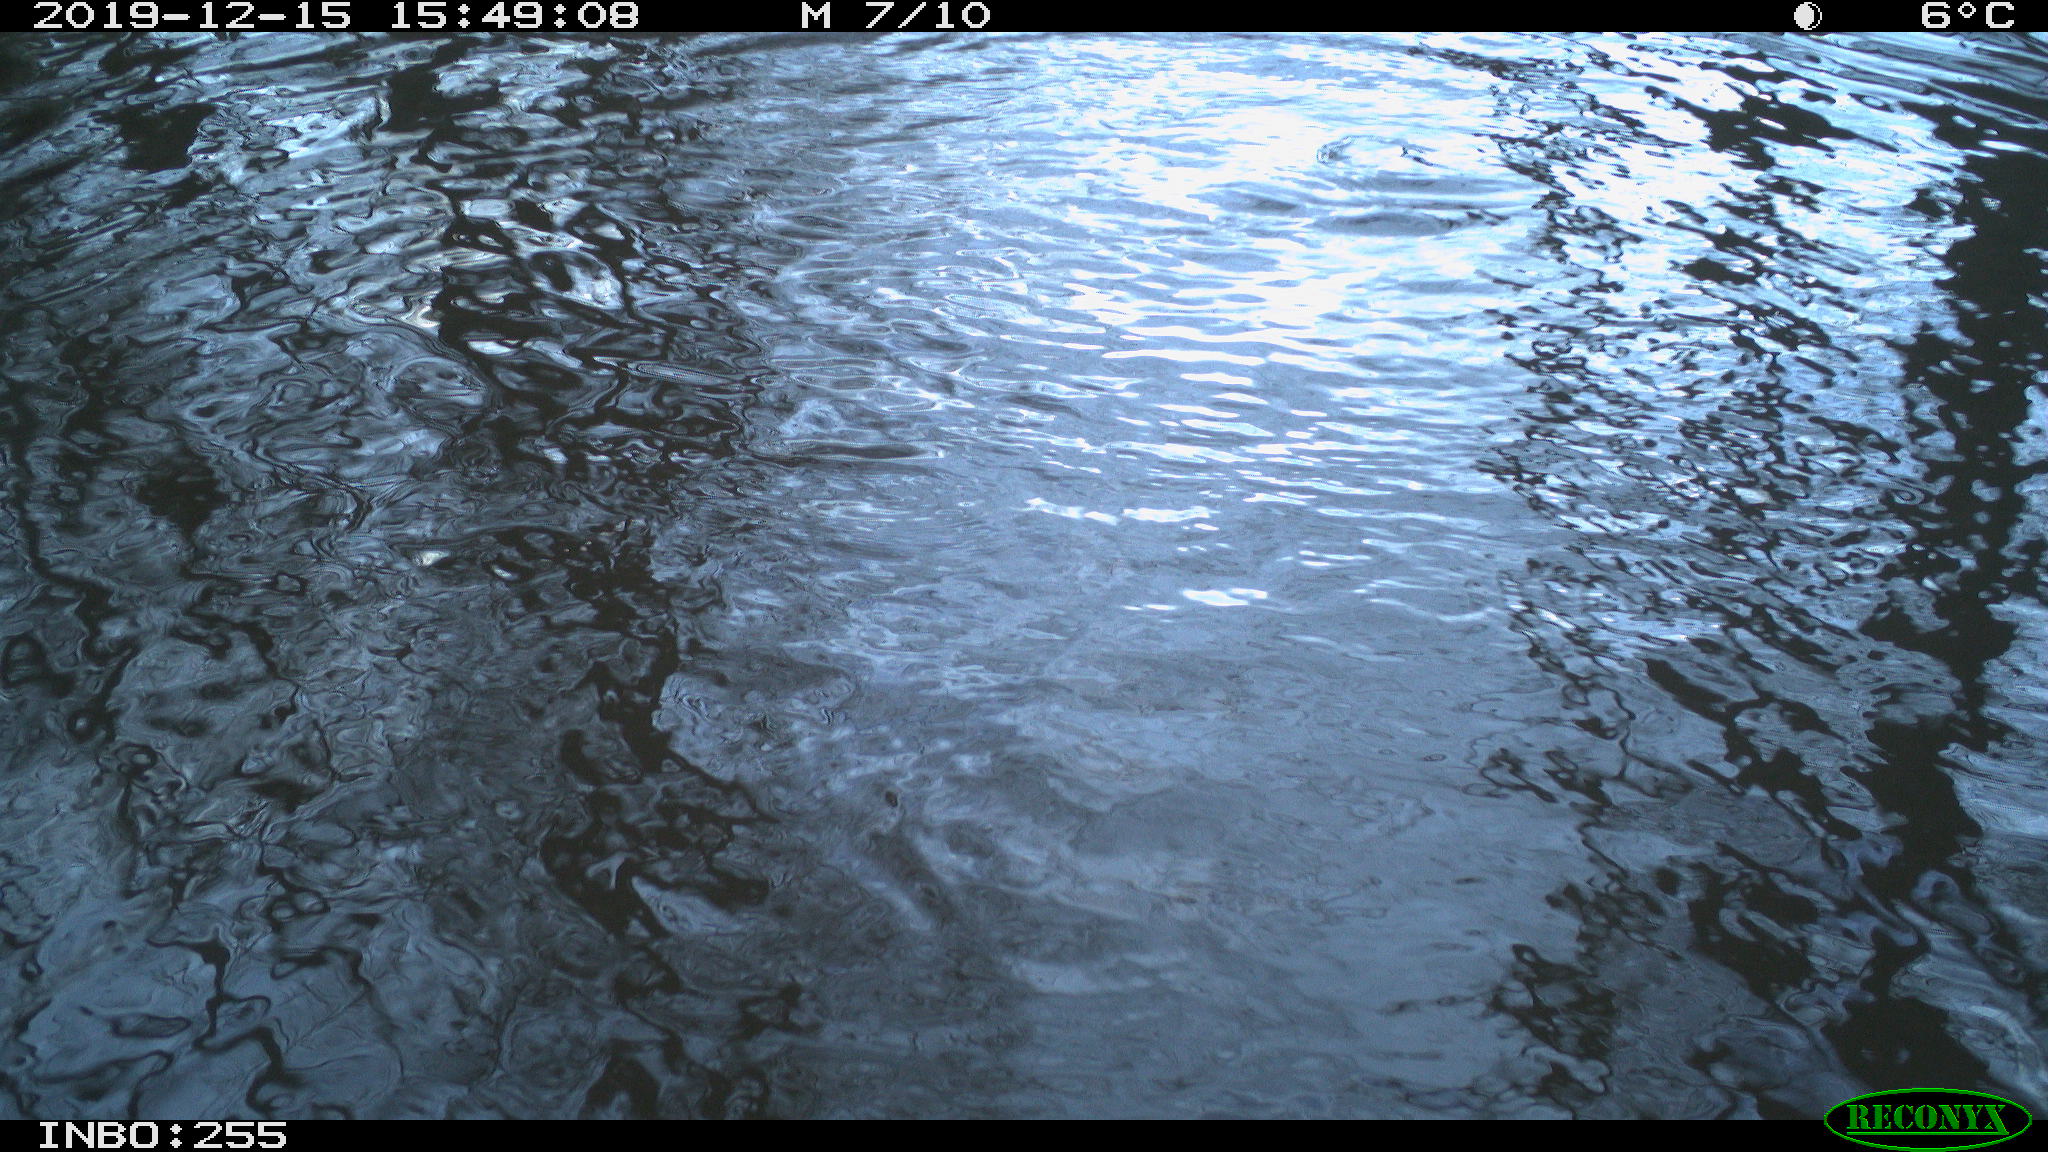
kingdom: Animalia
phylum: Chordata
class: Aves
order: Anseriformes
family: Anatidae
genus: Anas
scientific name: Anas platyrhynchos
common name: Mallard
